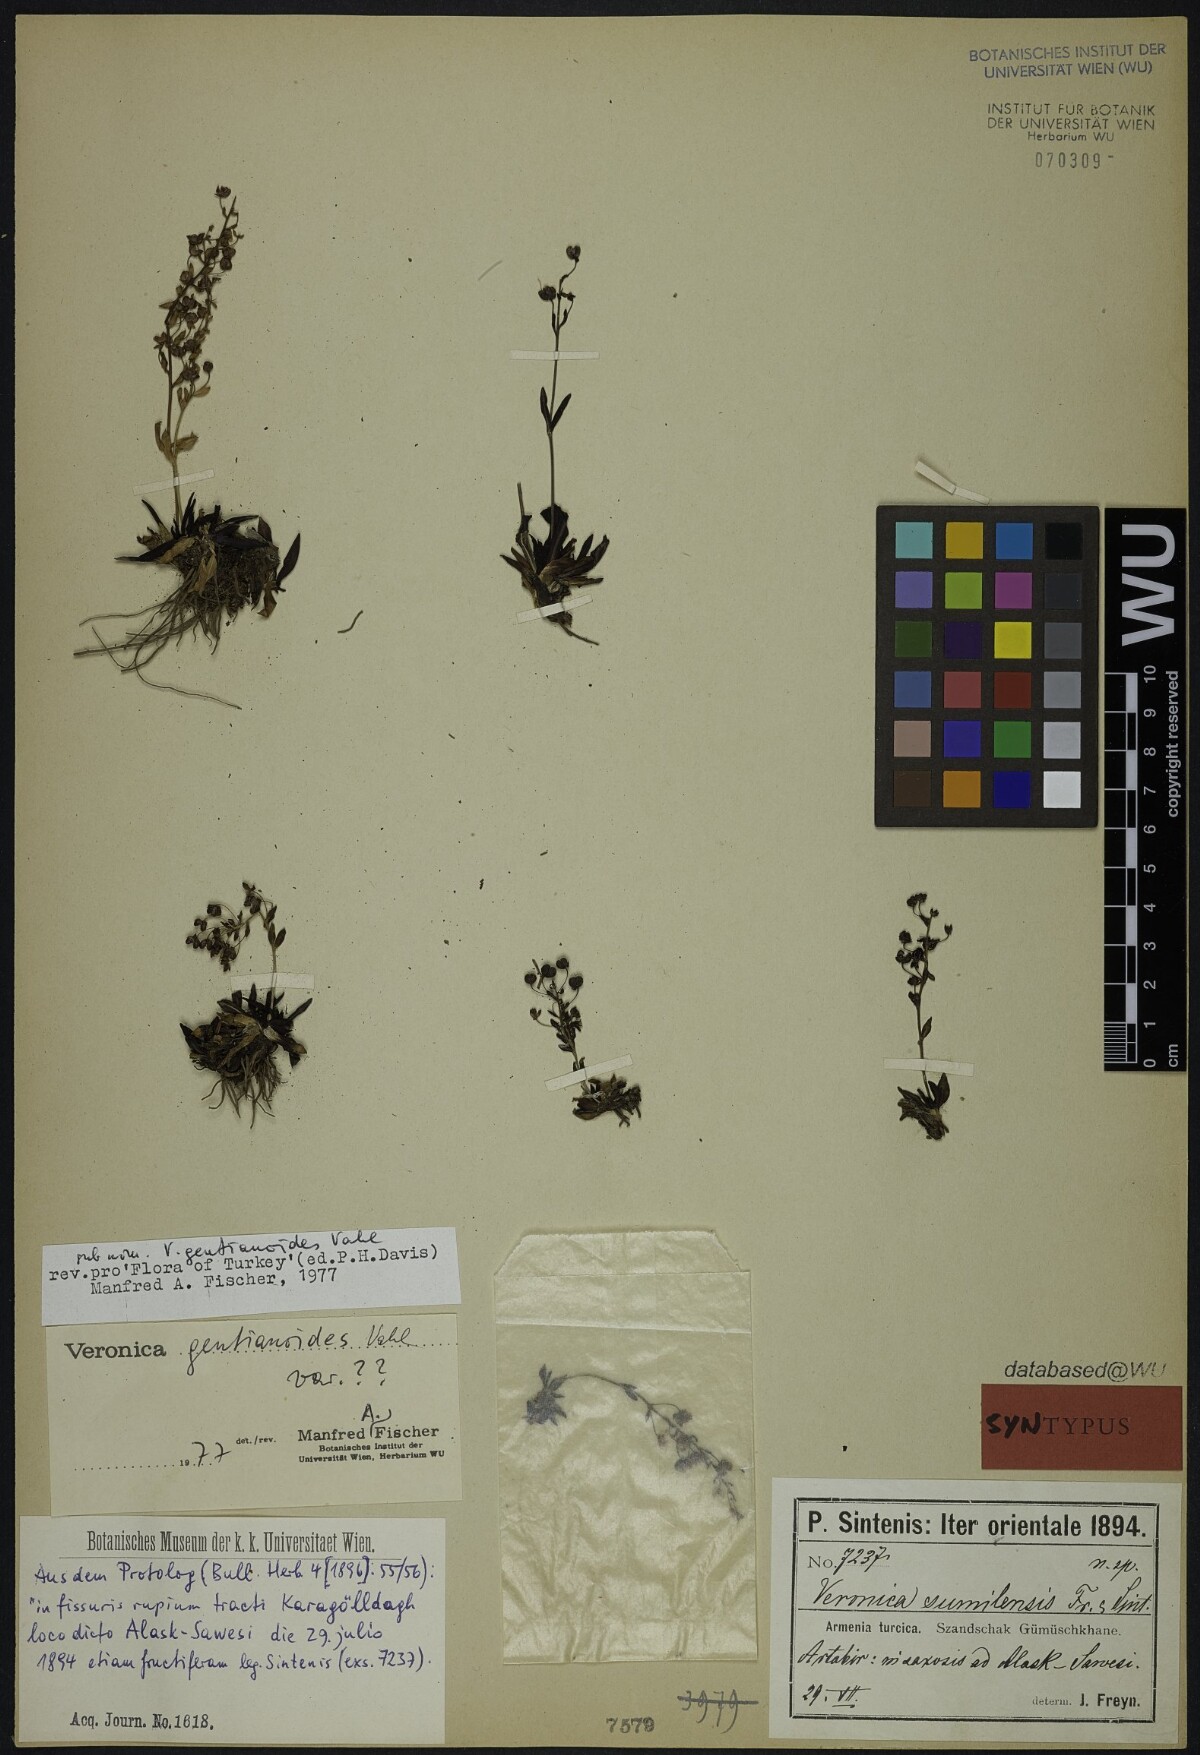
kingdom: Plantae
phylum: Tracheophyta
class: Magnoliopsida
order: Lamiales
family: Plantaginaceae
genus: Veronica
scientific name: Veronica gentianoides
